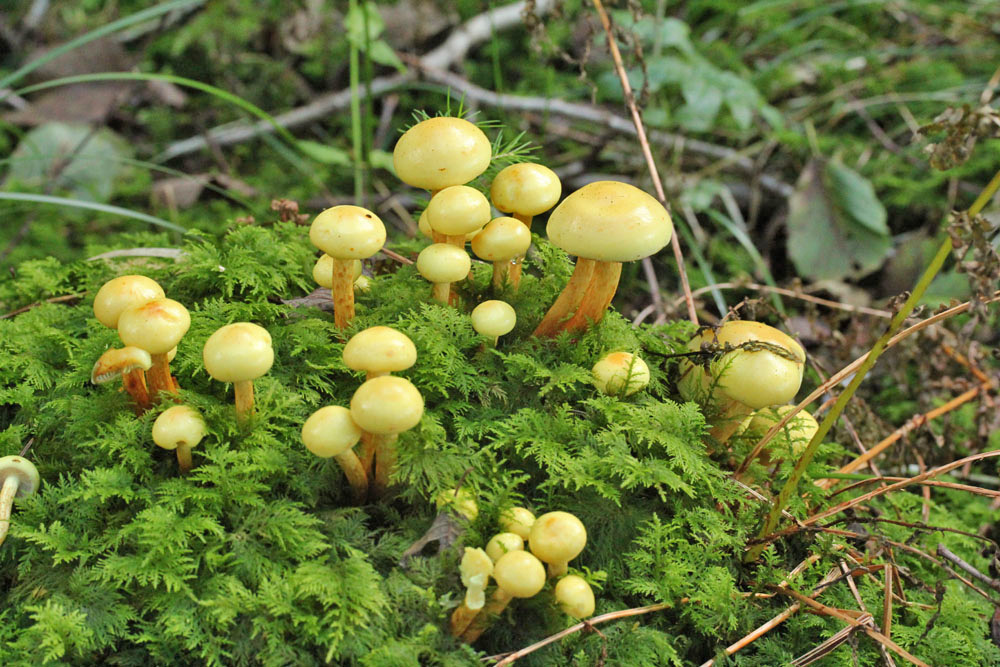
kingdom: Fungi
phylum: Basidiomycota
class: Agaricomycetes
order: Agaricales
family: Hymenogastraceae
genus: Flammula
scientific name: Flammula alnicola
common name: elle-skælhat
